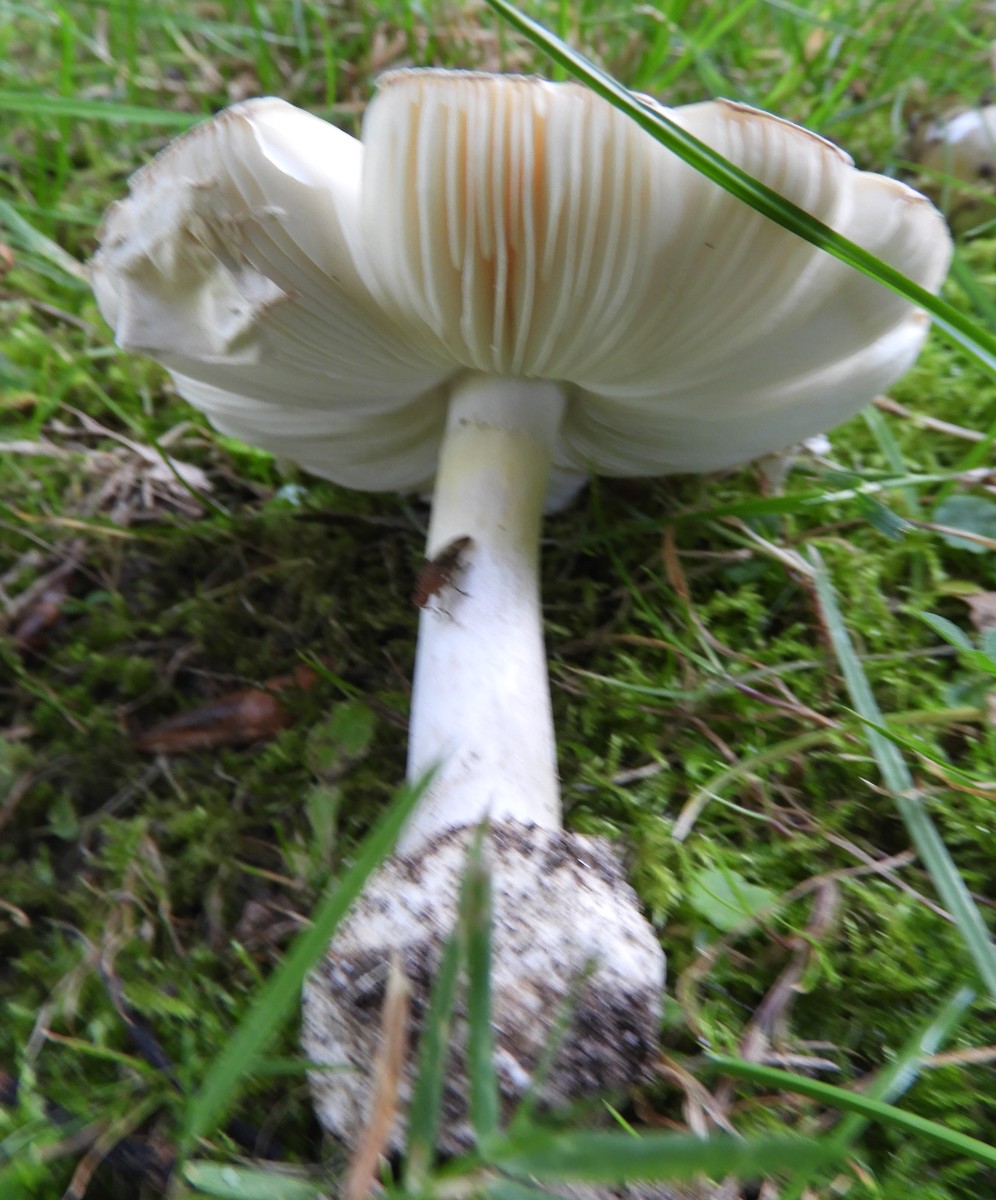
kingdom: Fungi
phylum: Basidiomycota
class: Agaricomycetes
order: Agaricales
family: Amanitaceae
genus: Amanita
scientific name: Amanita phalloides
